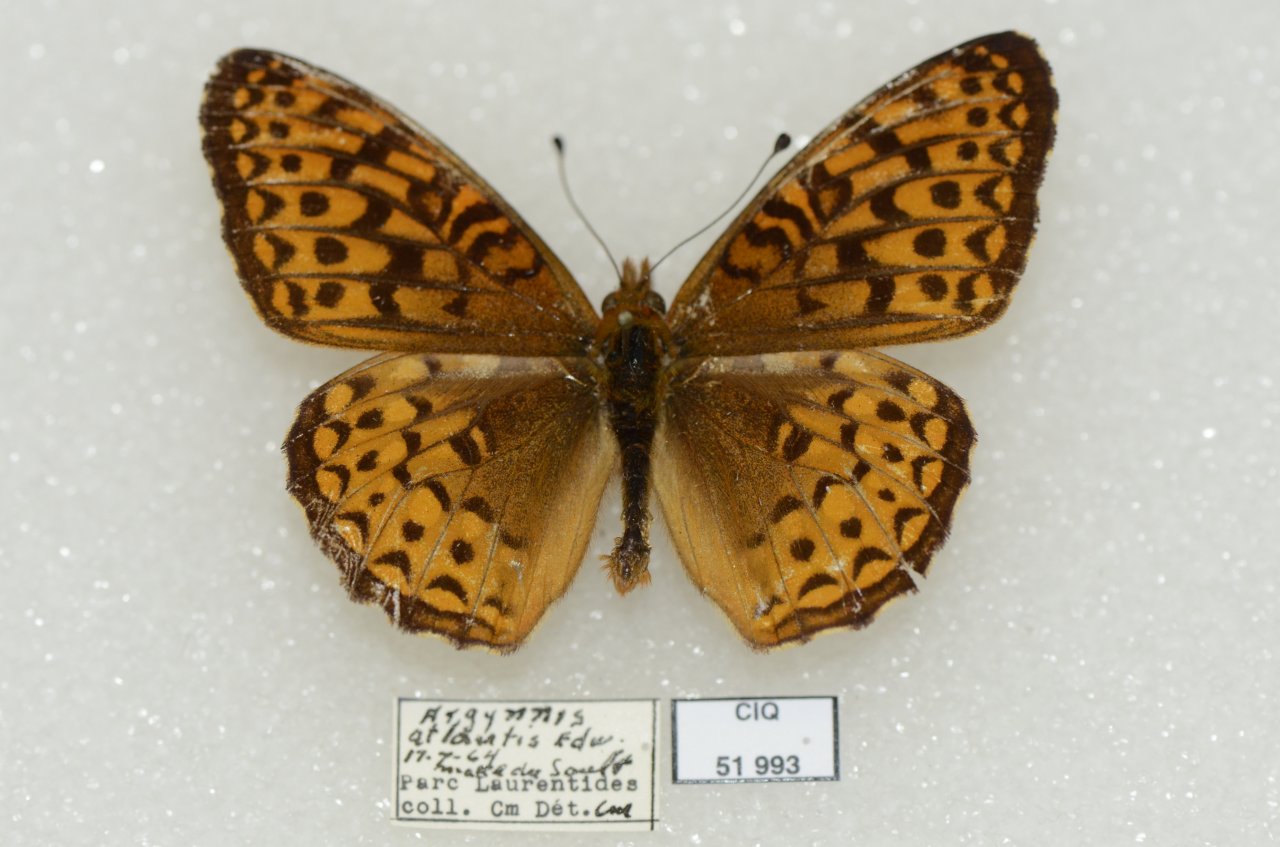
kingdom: Animalia
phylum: Arthropoda
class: Insecta
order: Lepidoptera
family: Nymphalidae
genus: Speyeria
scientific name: Speyeria atlantis
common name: Atlantis Fritillary
